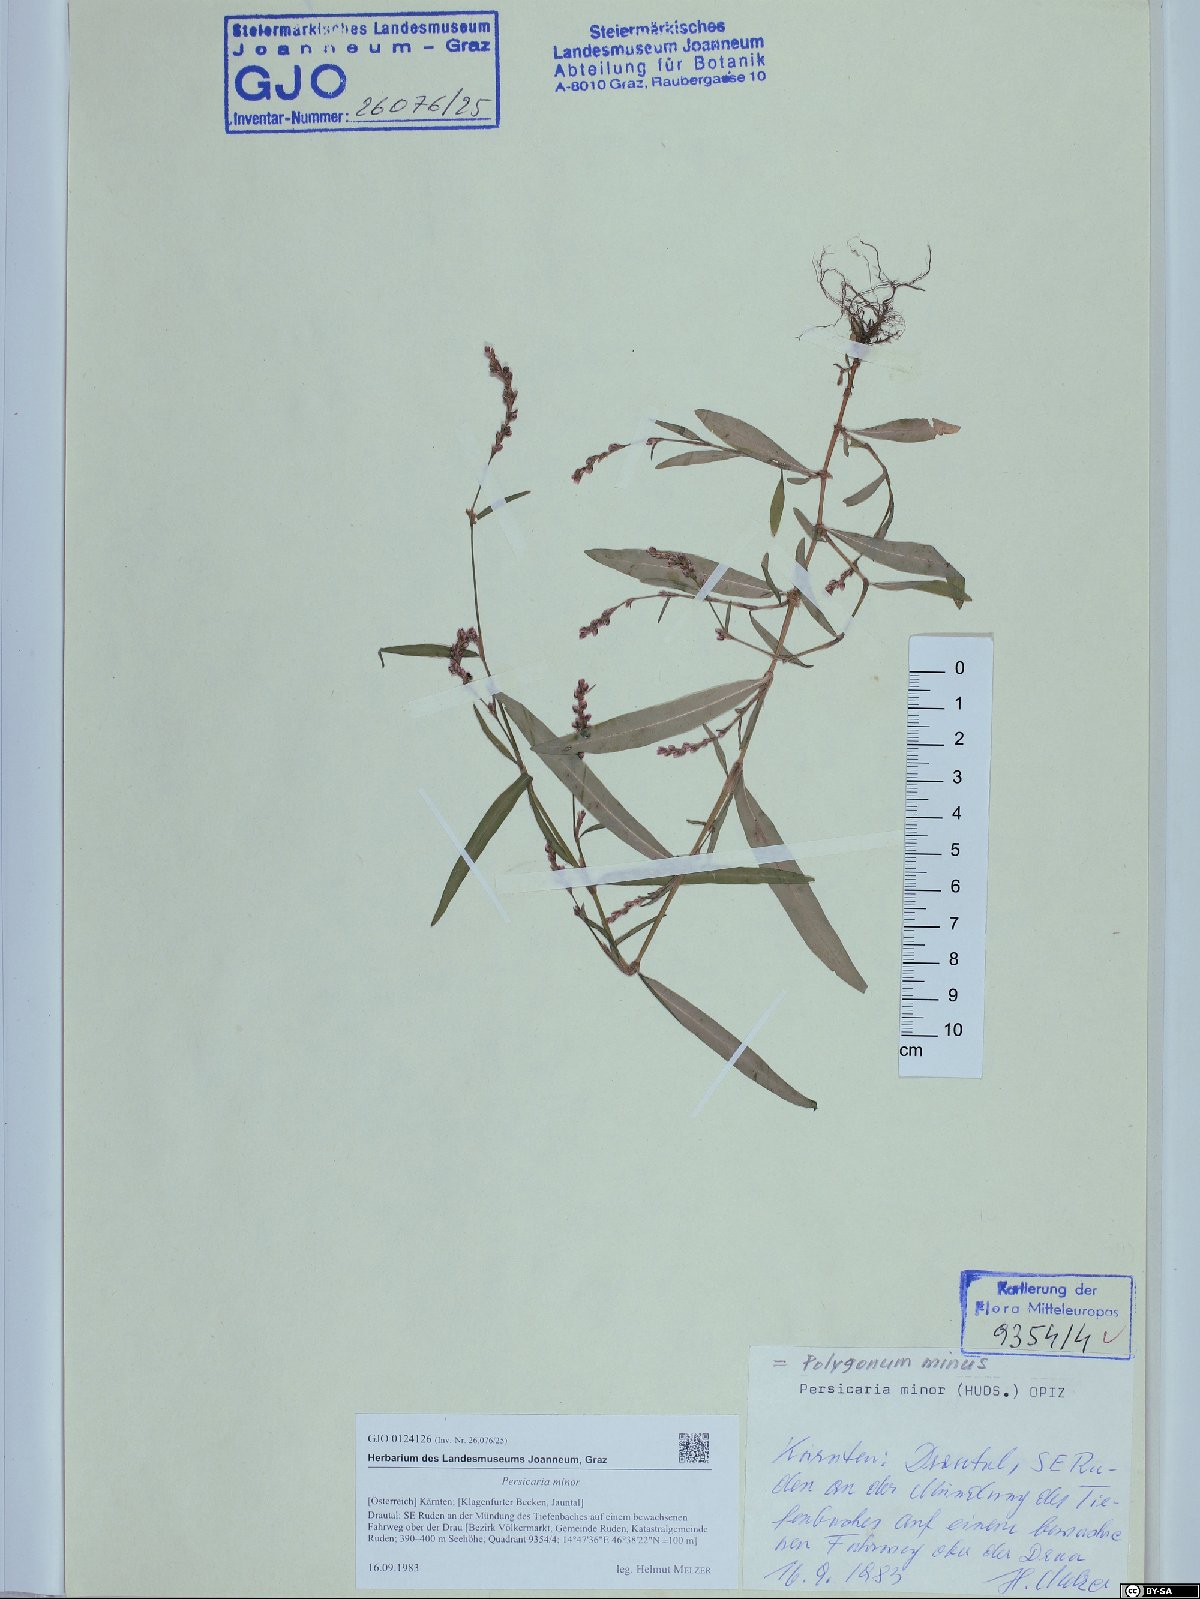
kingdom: Plantae
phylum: Tracheophyta
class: Magnoliopsida
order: Caryophyllales
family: Polygonaceae
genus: Persicaria
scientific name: Persicaria minor
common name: Small water-pepper
